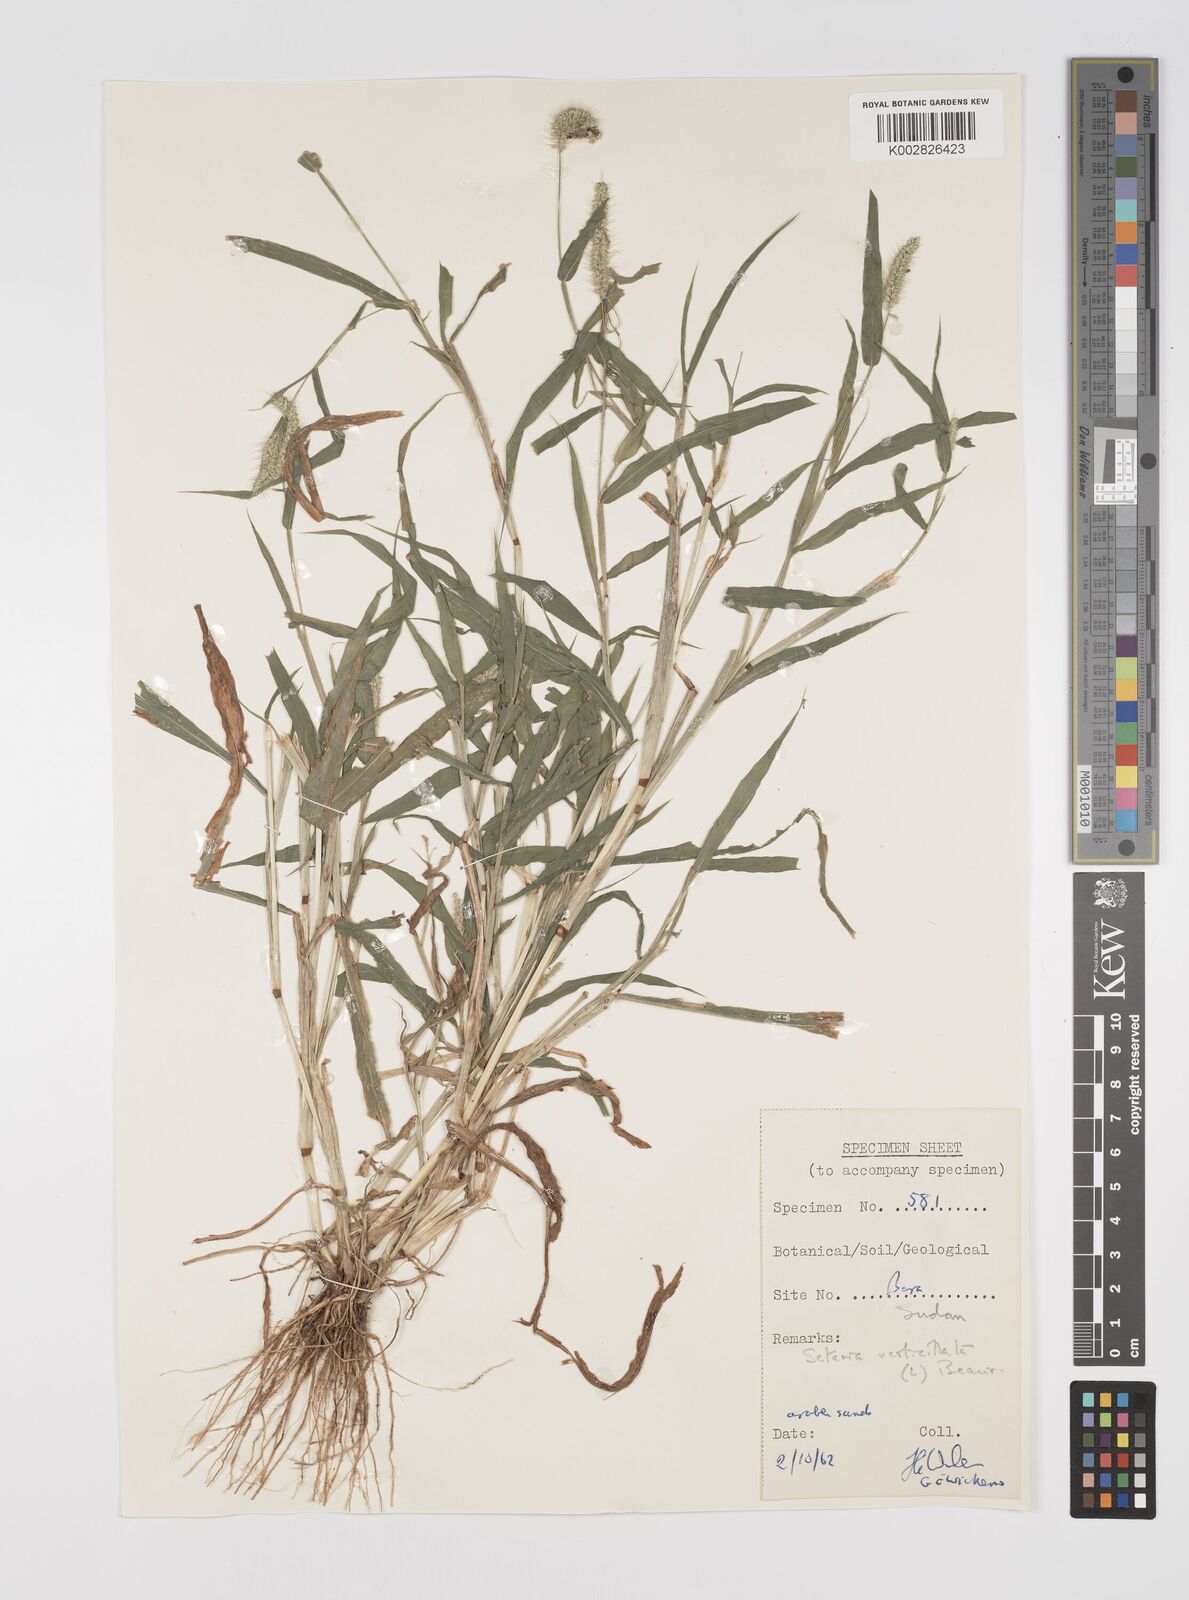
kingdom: Plantae
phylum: Tracheophyta
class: Liliopsida
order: Poales
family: Poaceae
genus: Setaria
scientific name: Setaria verticillata
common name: Hooked bristlegrass
